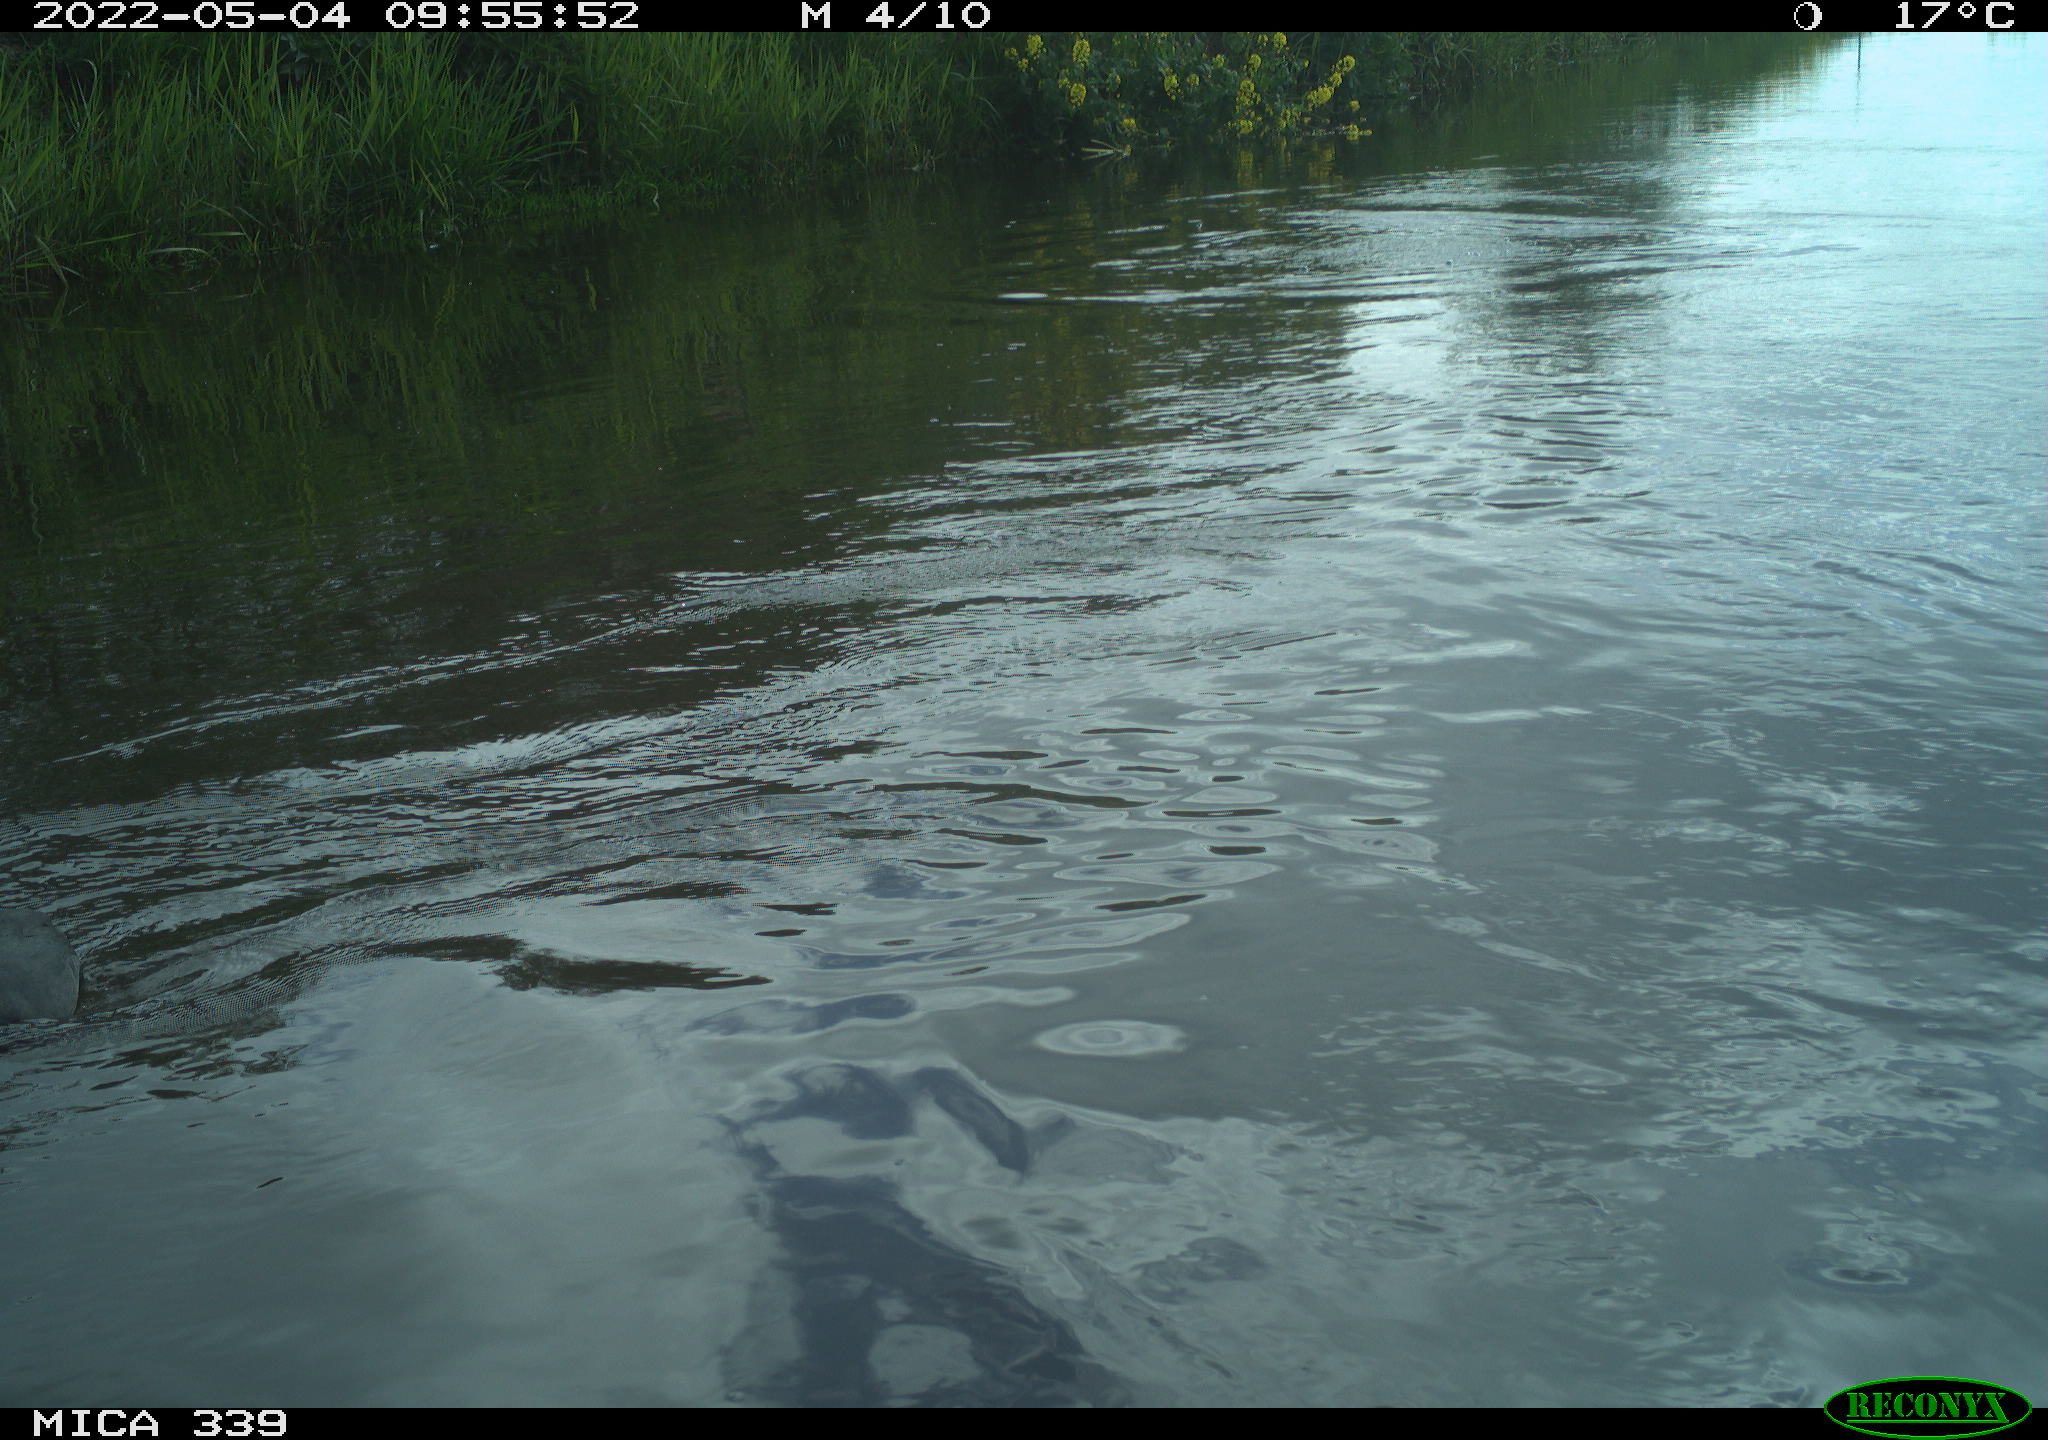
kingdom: Animalia
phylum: Chordata
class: Aves
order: Gruiformes
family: Rallidae
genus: Fulica
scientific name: Fulica atra
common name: Eurasian coot
